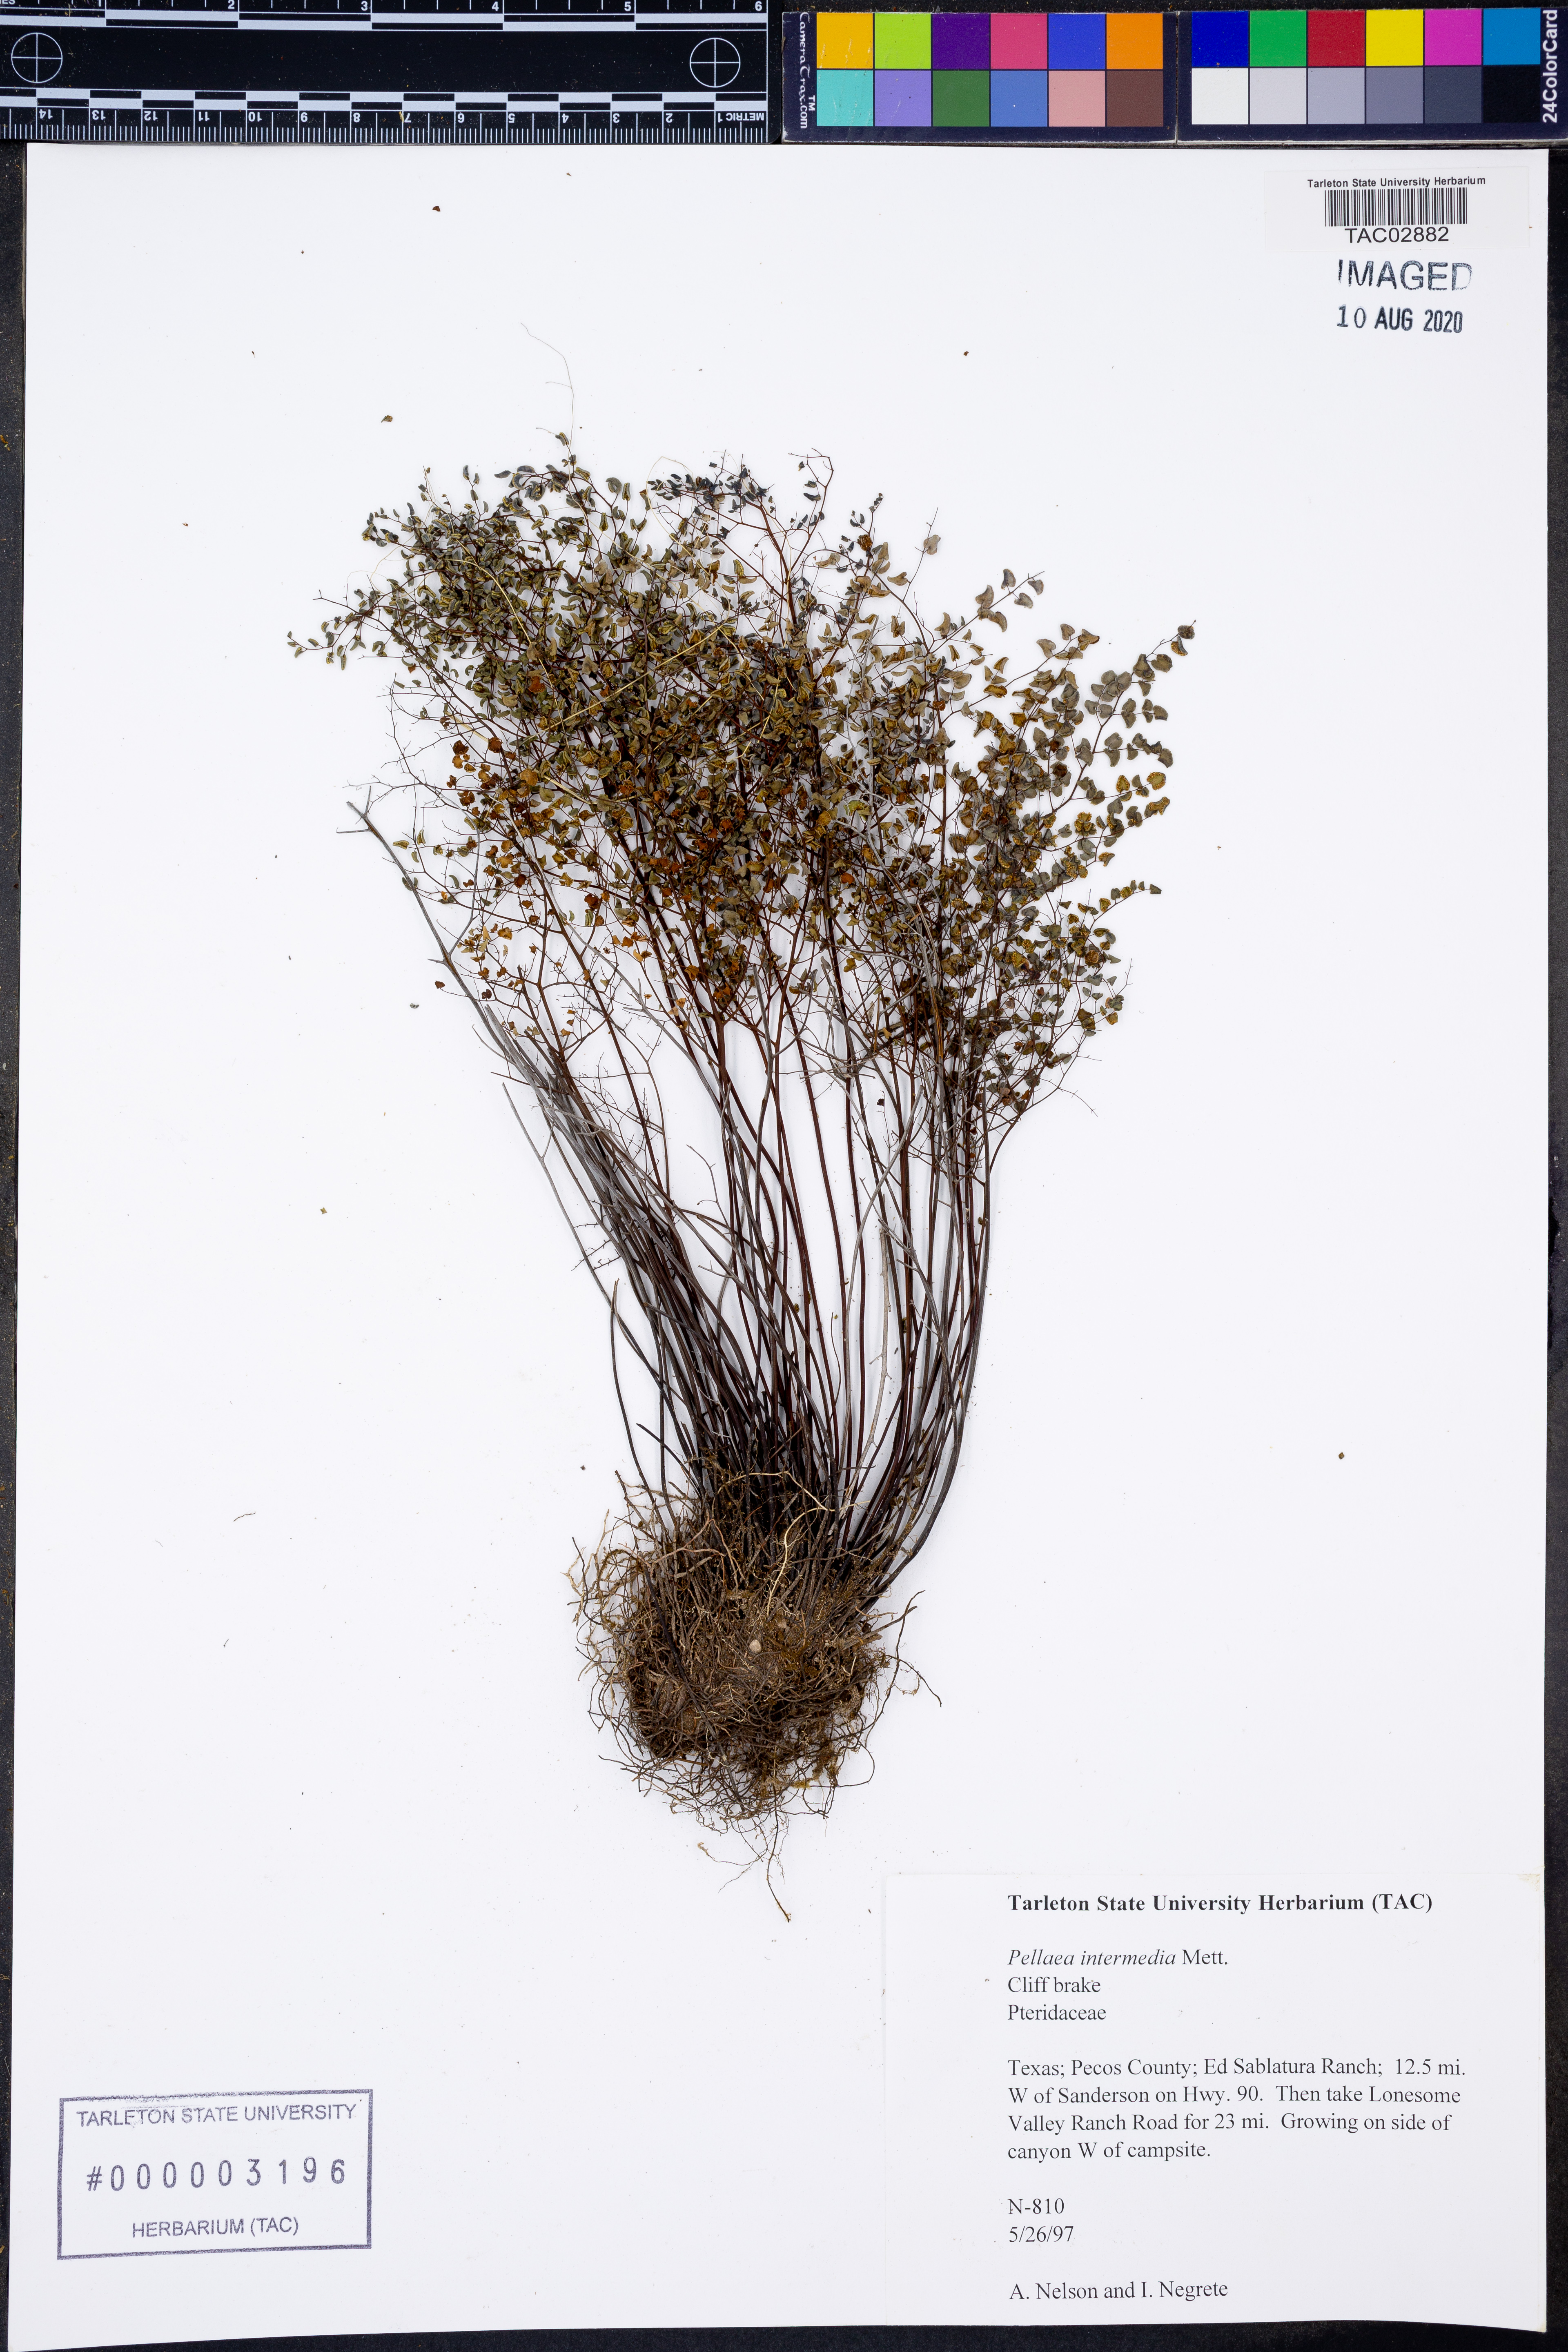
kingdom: Plantae
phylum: Tracheophyta
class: Polypodiopsida
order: Polypodiales
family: Pteridaceae
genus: Pellaea
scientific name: Pellaea intermedia
